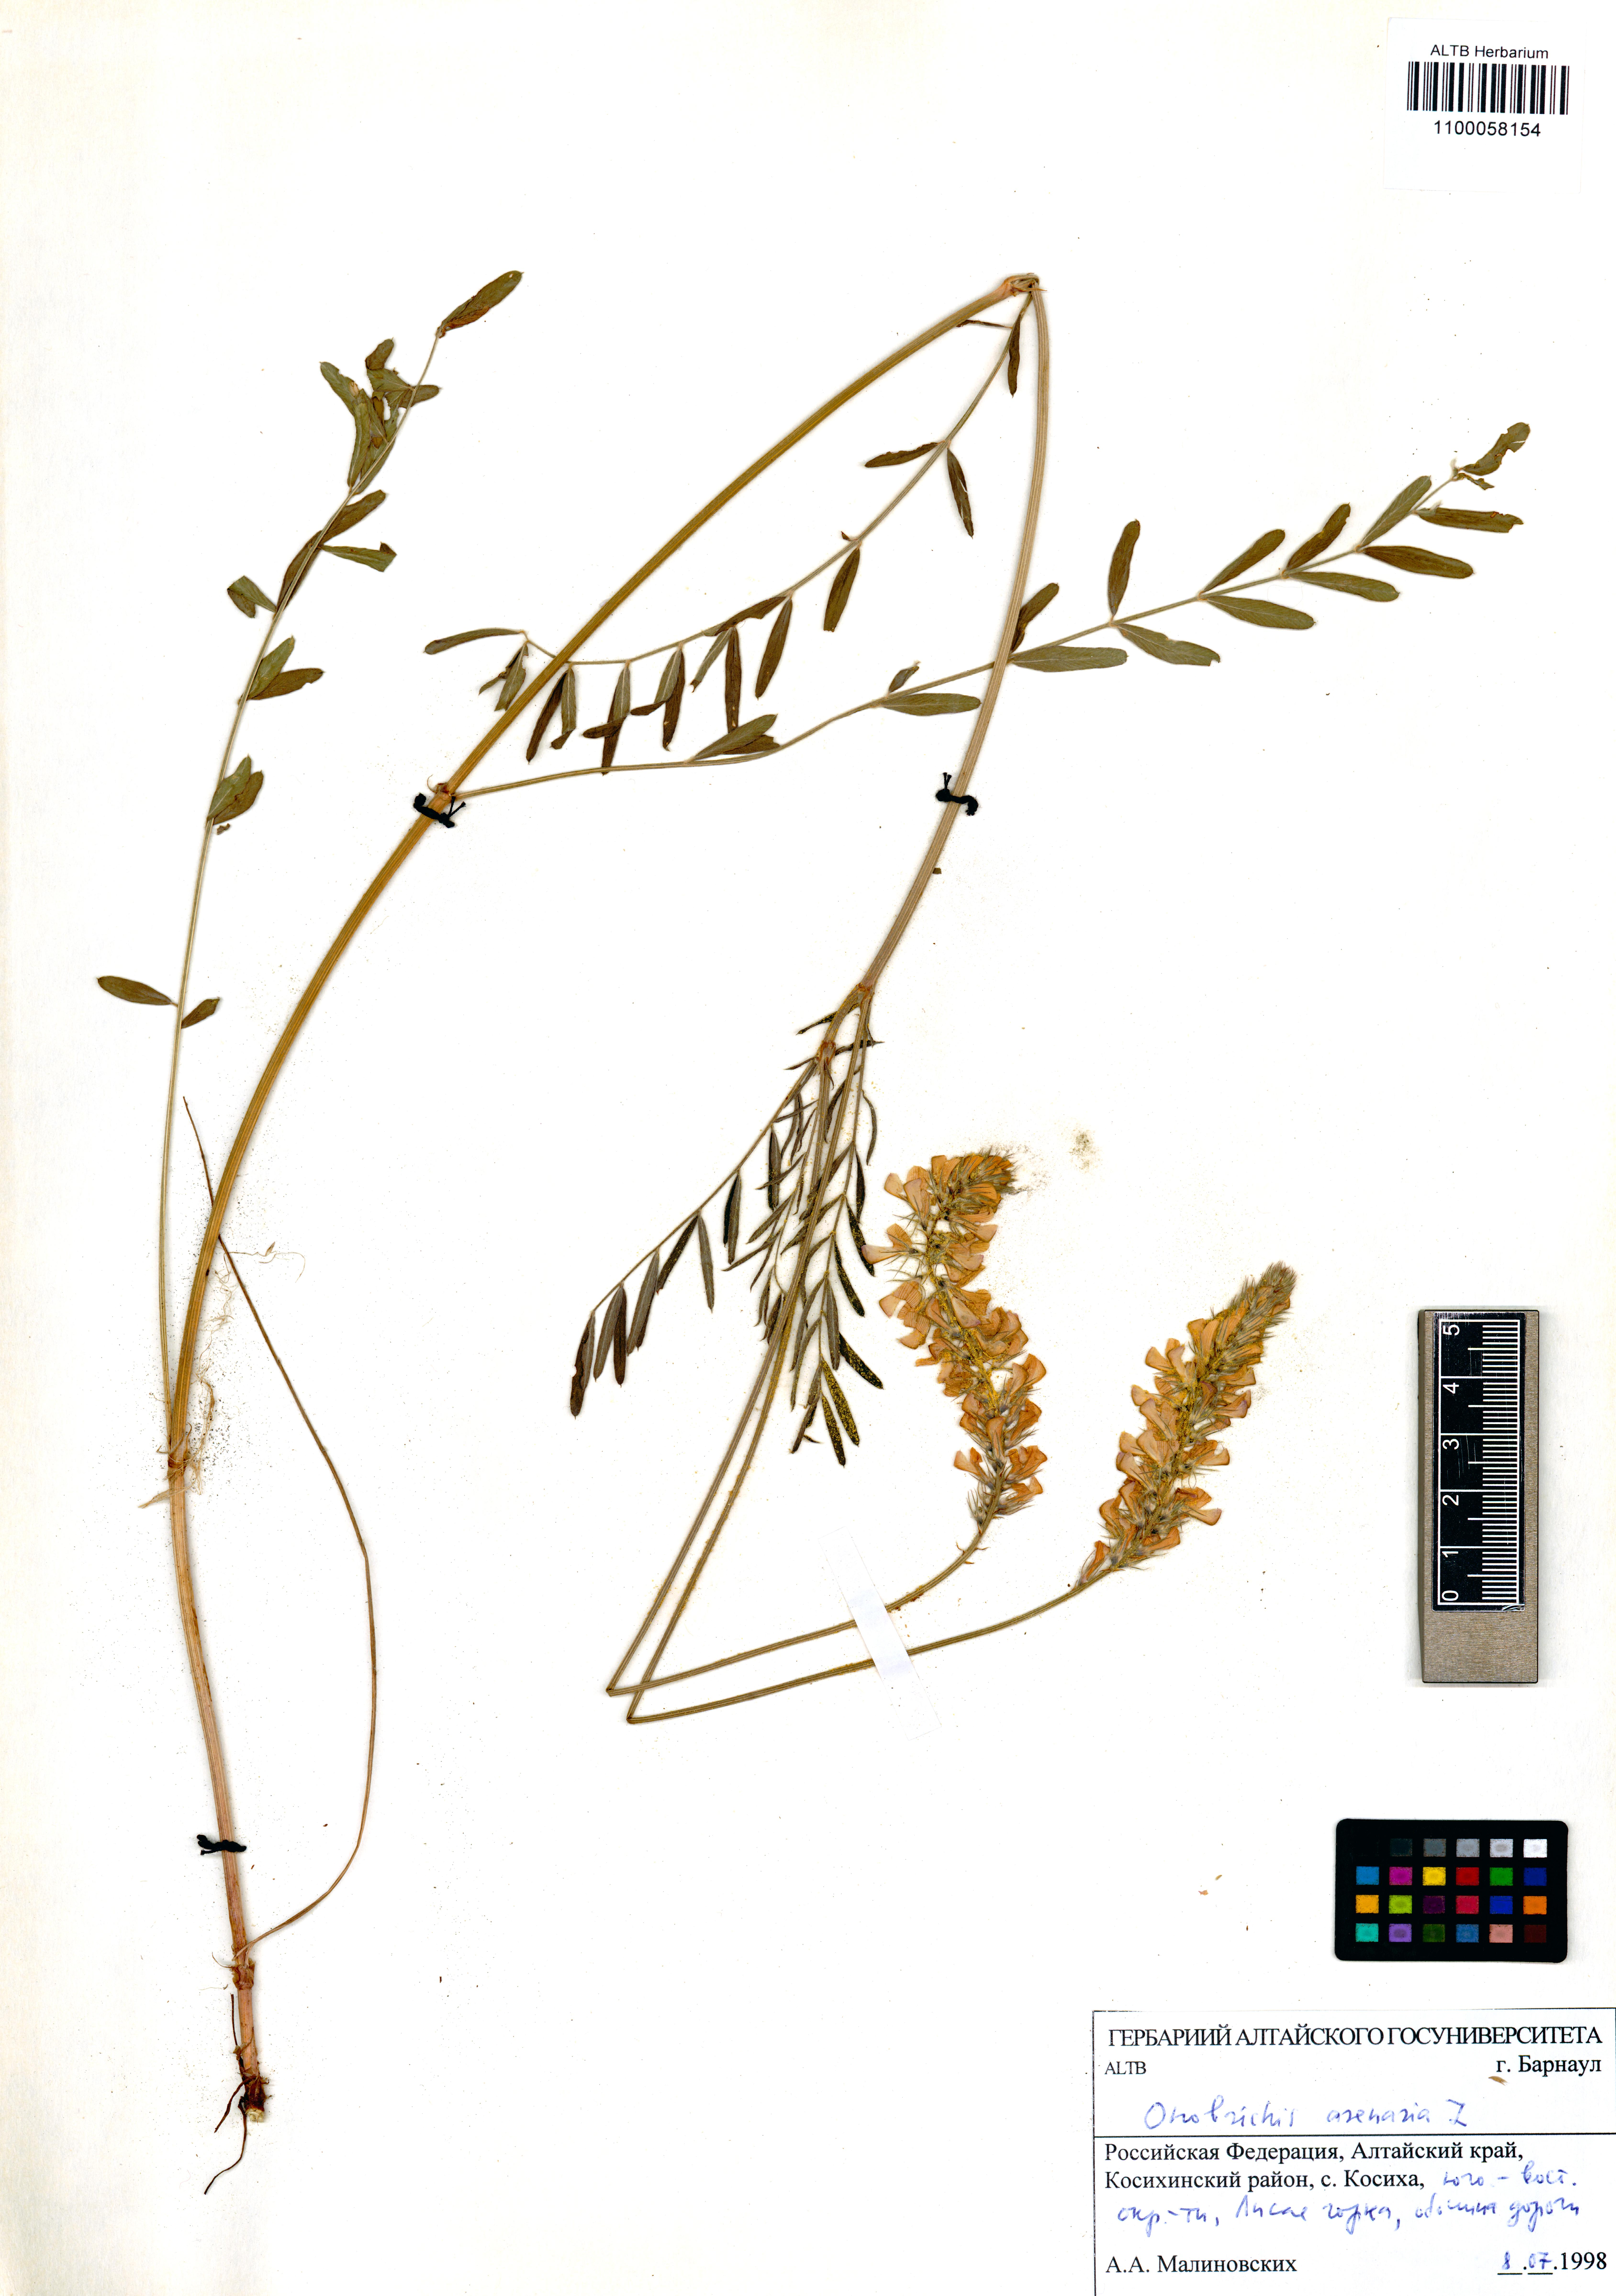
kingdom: Plantae
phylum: Tracheophyta
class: Magnoliopsida
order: Fabales
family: Fabaceae
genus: Onobrychis
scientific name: Onobrychis arenaria
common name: Sand esparcet
